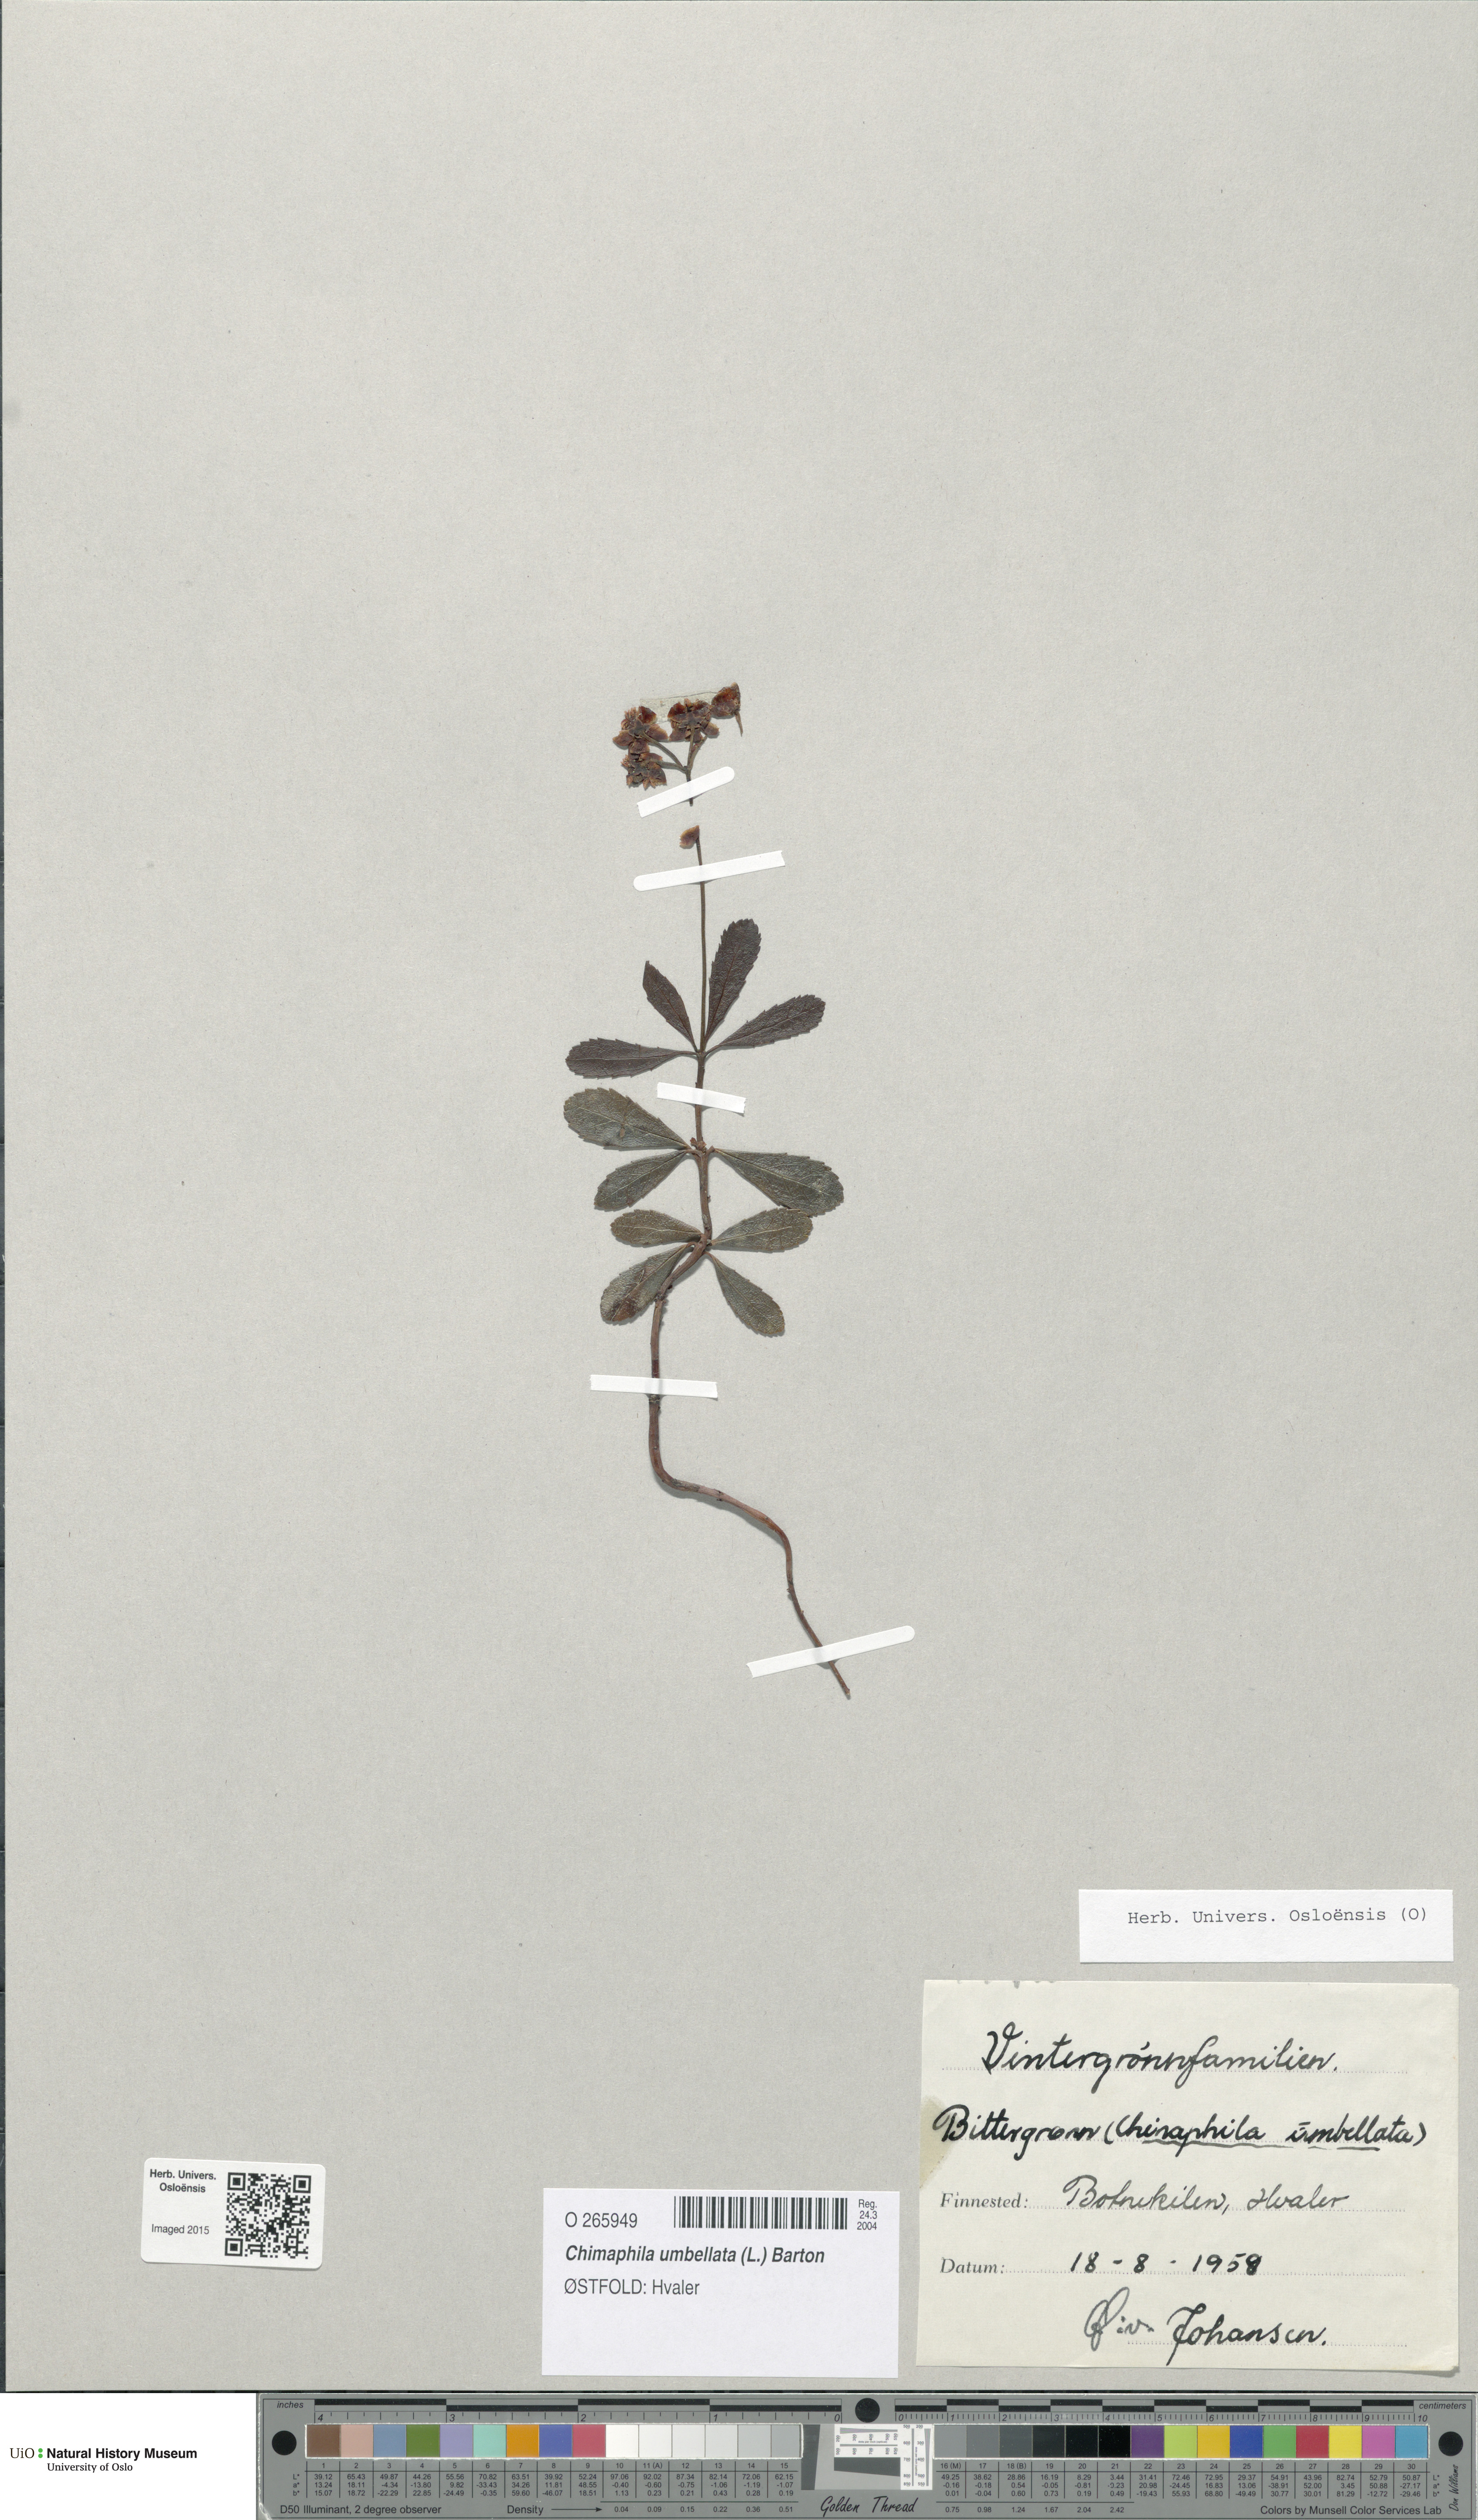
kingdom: Plantae
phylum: Tracheophyta
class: Magnoliopsida
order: Ericales
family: Ericaceae
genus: Chimaphila
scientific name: Chimaphila umbellata
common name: Pipsissewa
